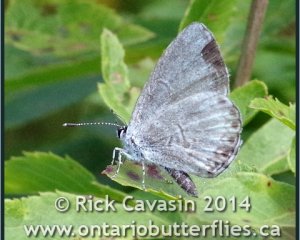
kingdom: Animalia
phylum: Arthropoda
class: Insecta
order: Lepidoptera
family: Lycaenidae
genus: Cyaniris
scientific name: Cyaniris neglecta
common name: Summer Azure
